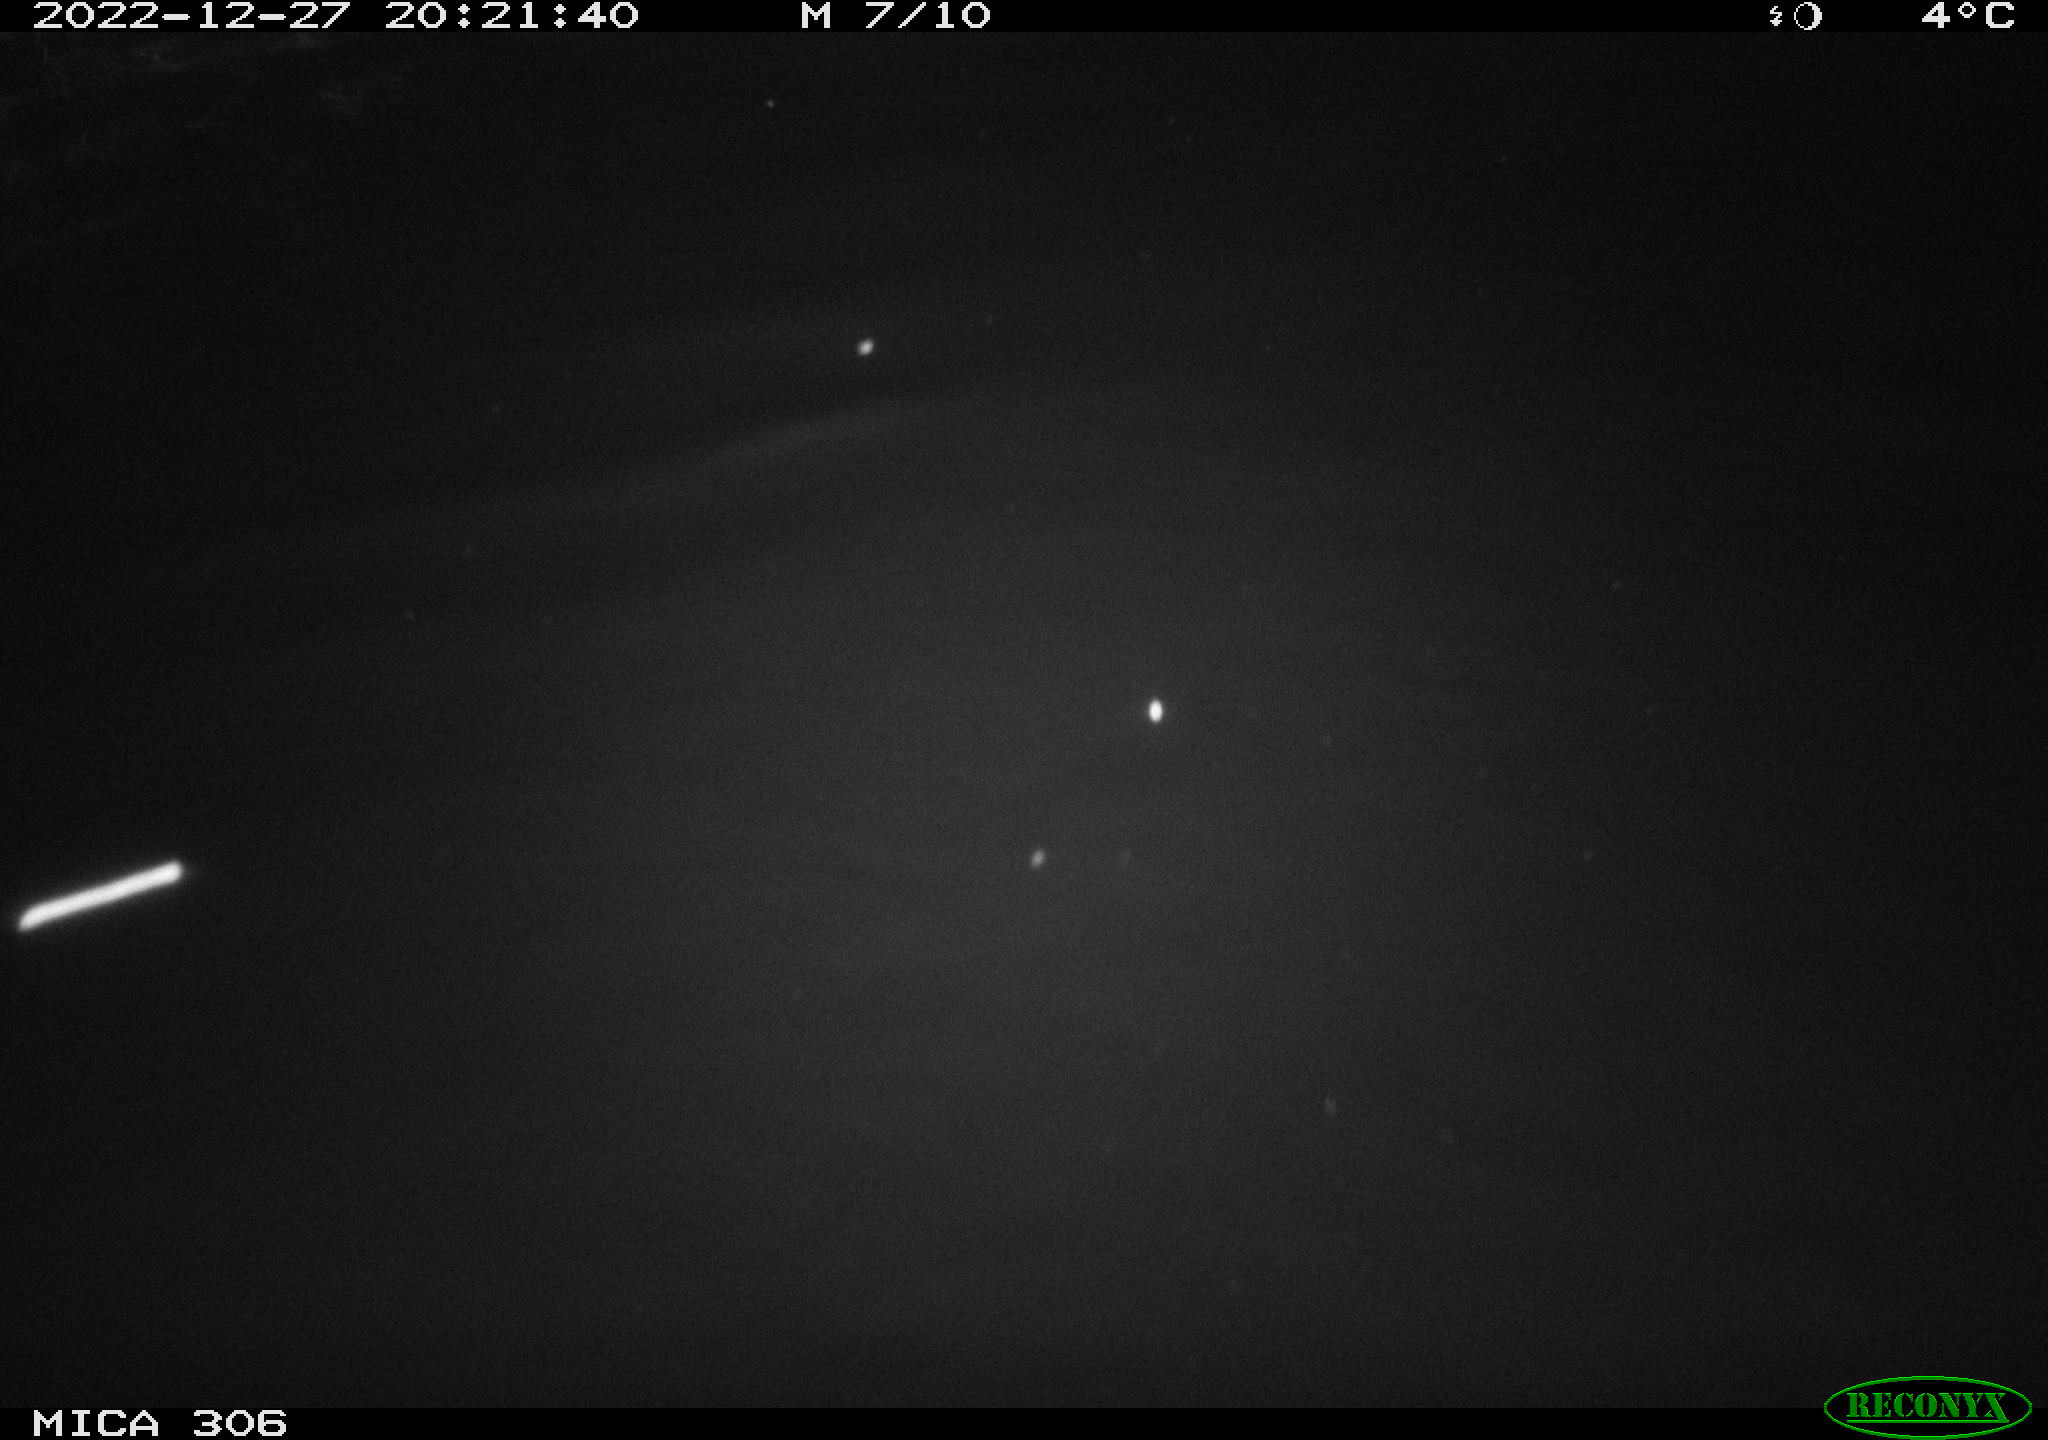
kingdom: Animalia
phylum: Chordata
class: Mammalia
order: Rodentia
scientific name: Rodentia
